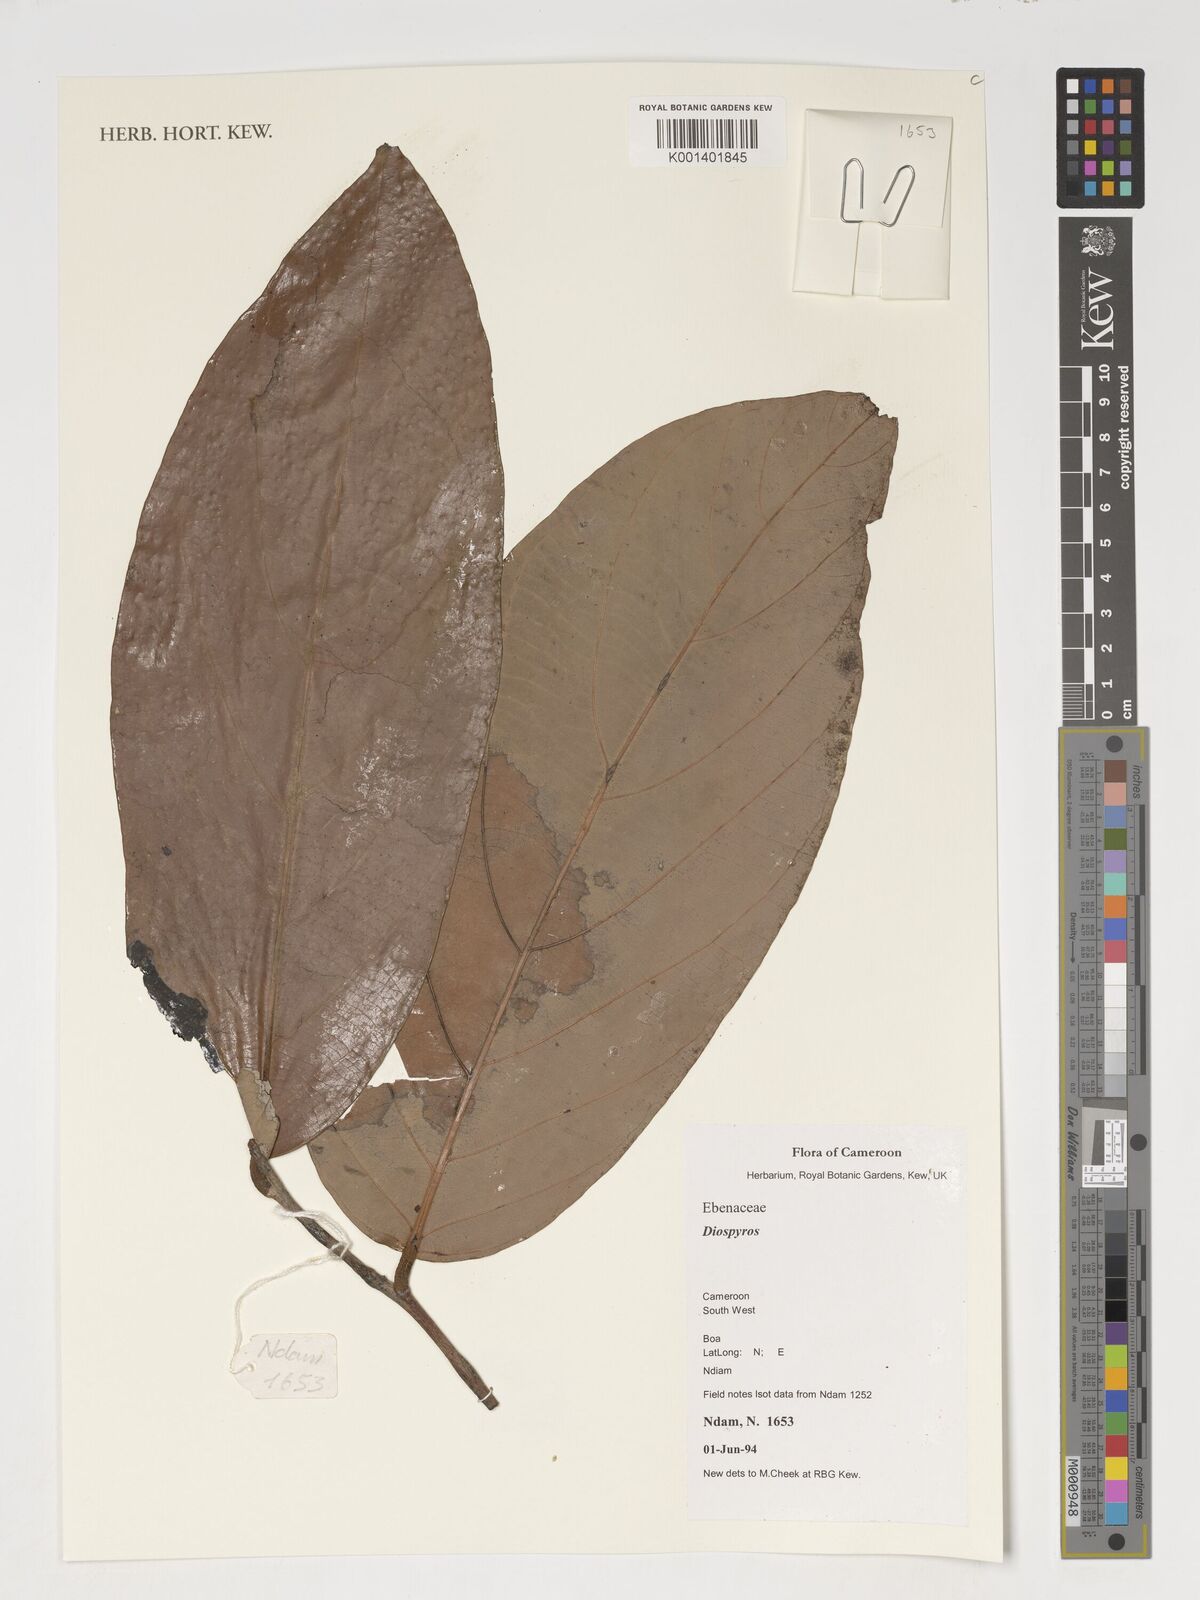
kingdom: Plantae
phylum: Tracheophyta
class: Magnoliopsida
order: Ericales
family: Ebenaceae
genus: Diospyros
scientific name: Diospyros
